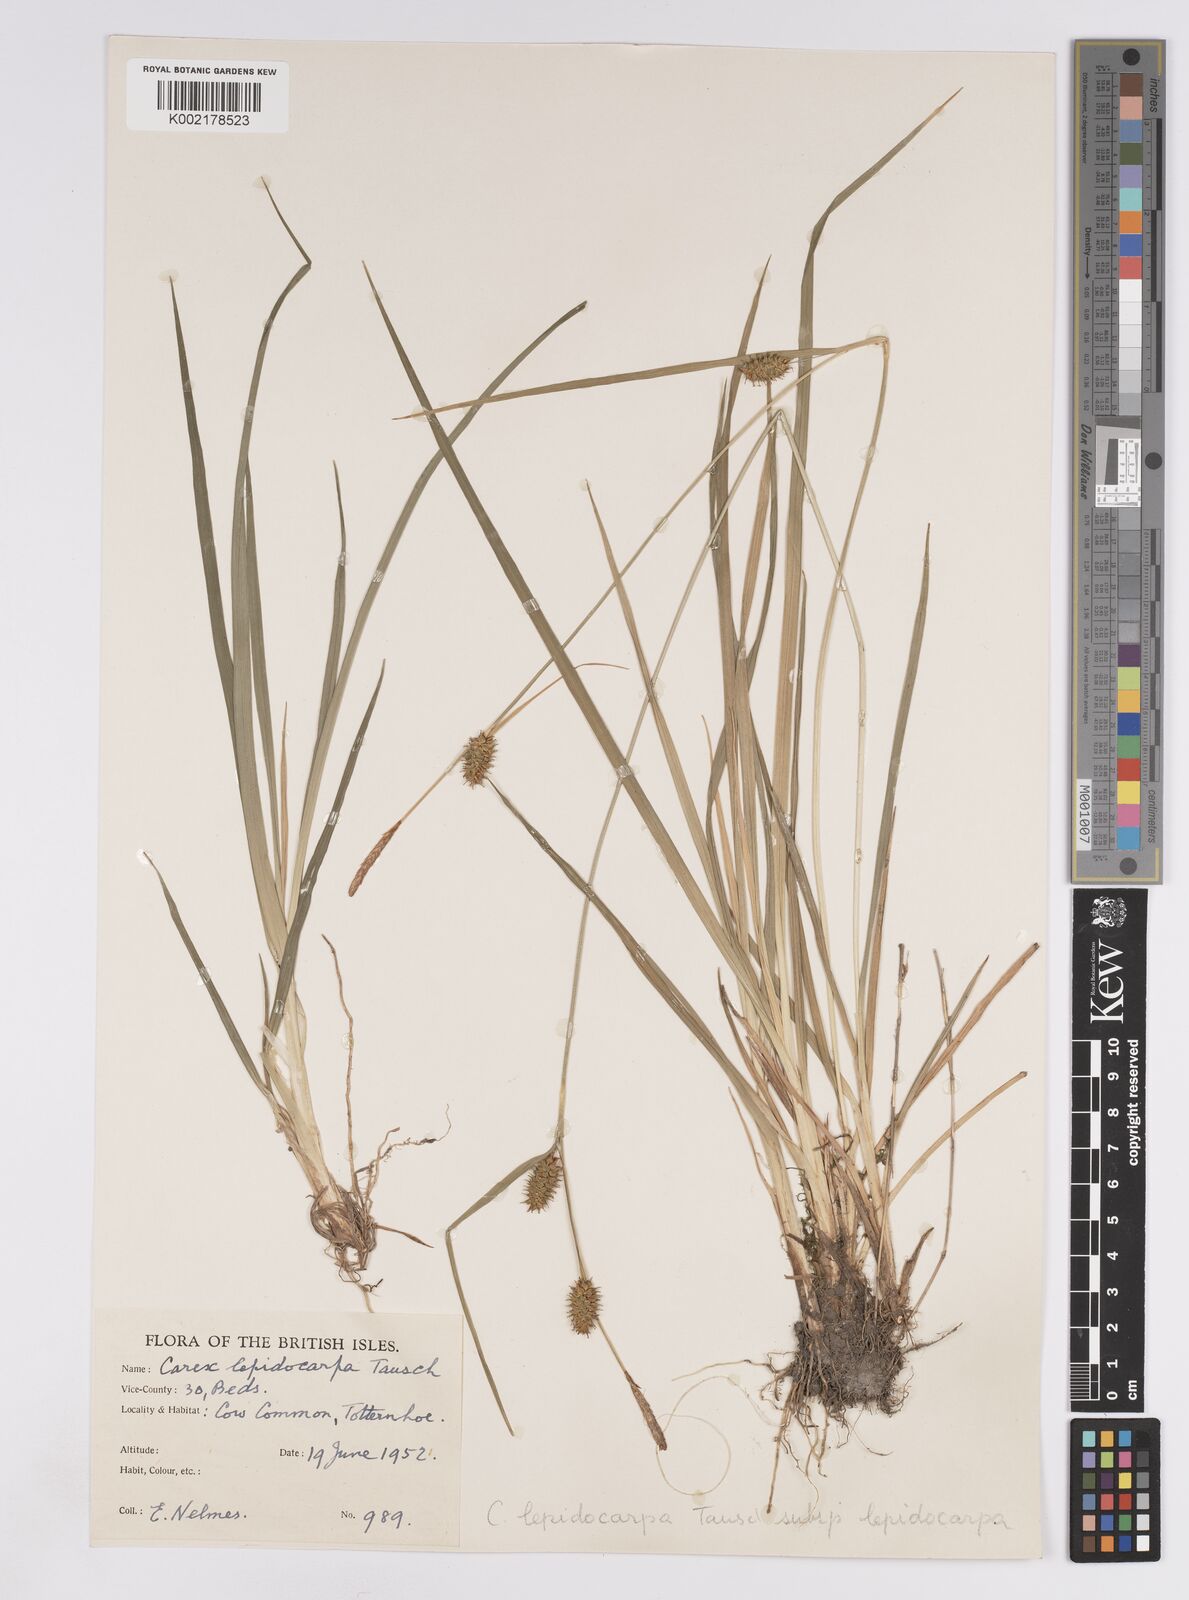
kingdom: Plantae
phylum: Tracheophyta
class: Liliopsida
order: Poales
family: Cyperaceae
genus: Carex
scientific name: Carex lepidocarpa
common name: Long-stalked yellow-sedge
